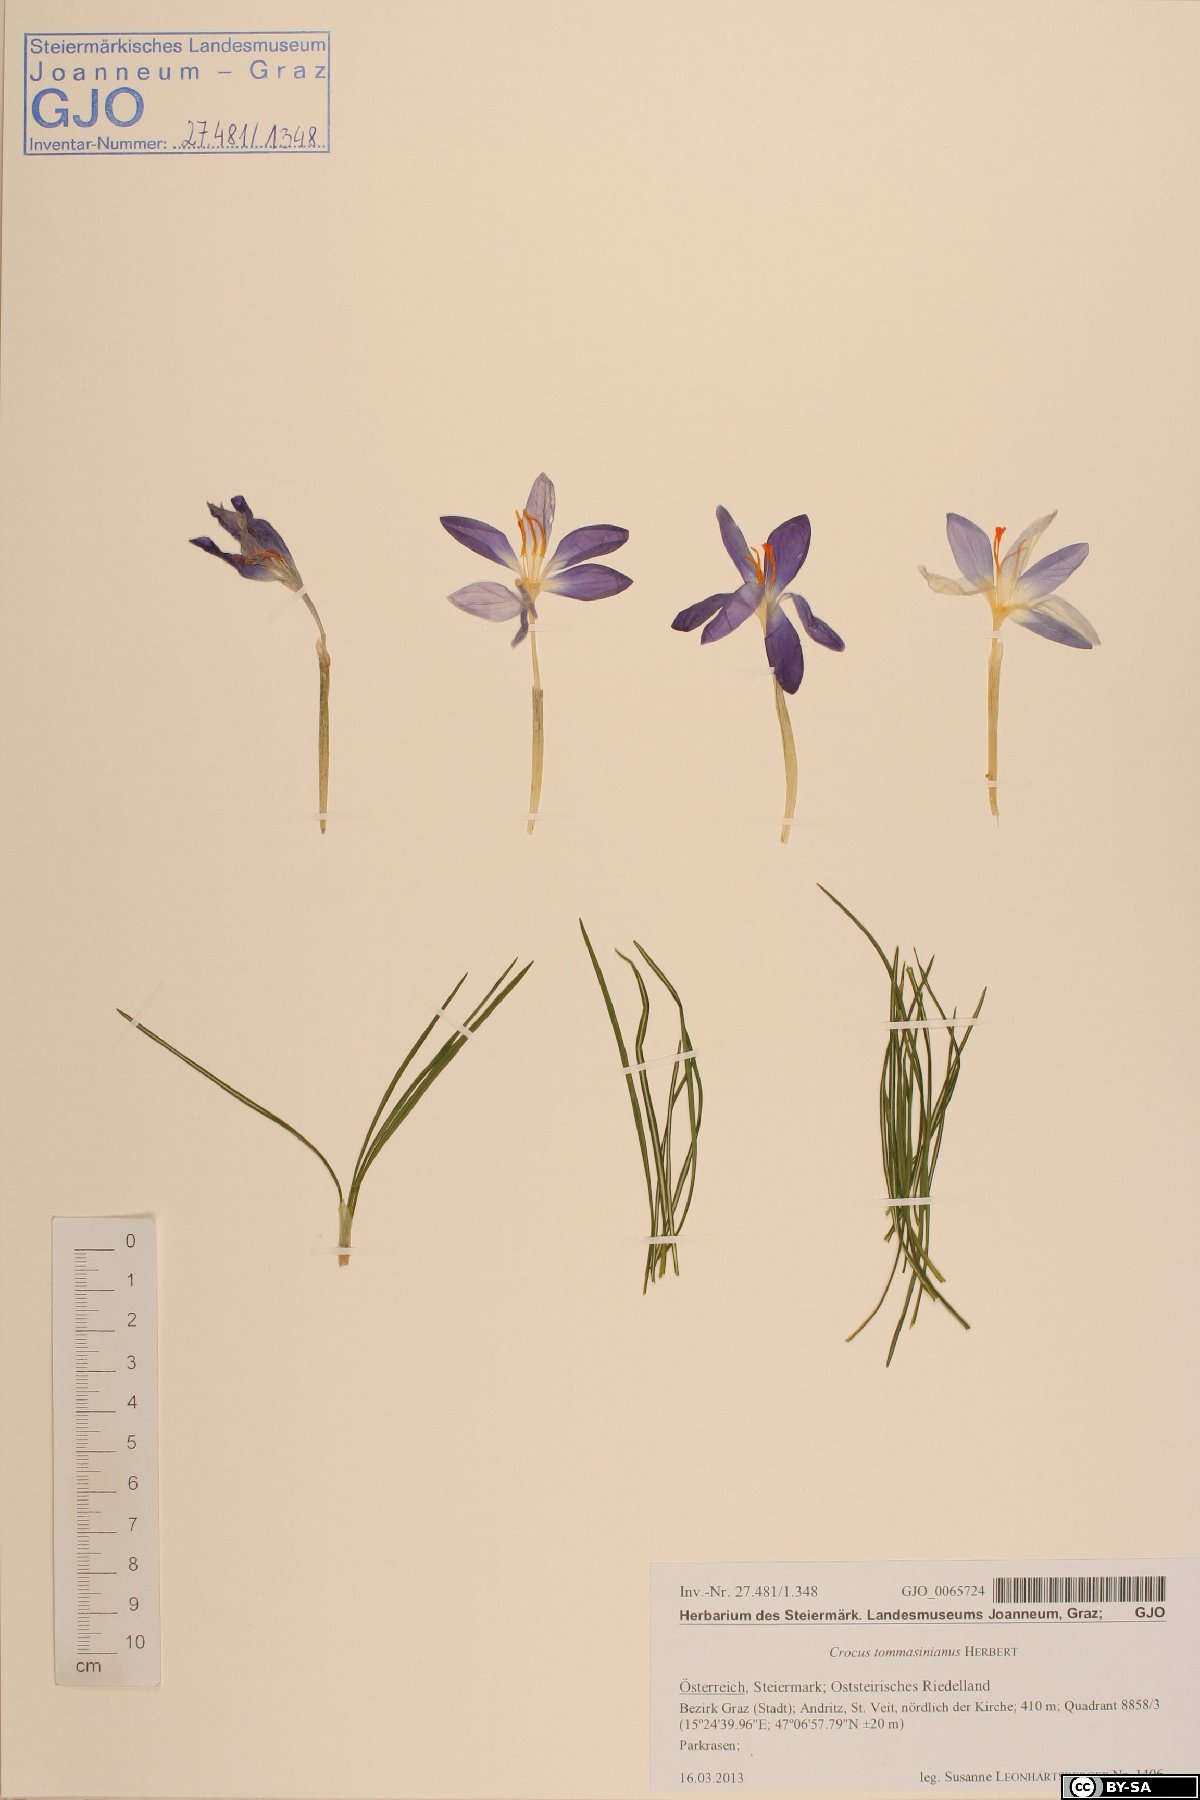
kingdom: Plantae
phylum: Tracheophyta
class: Liliopsida
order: Asparagales
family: Iridaceae
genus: Crocus
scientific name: Crocus tommasinianus
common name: Early crocus
